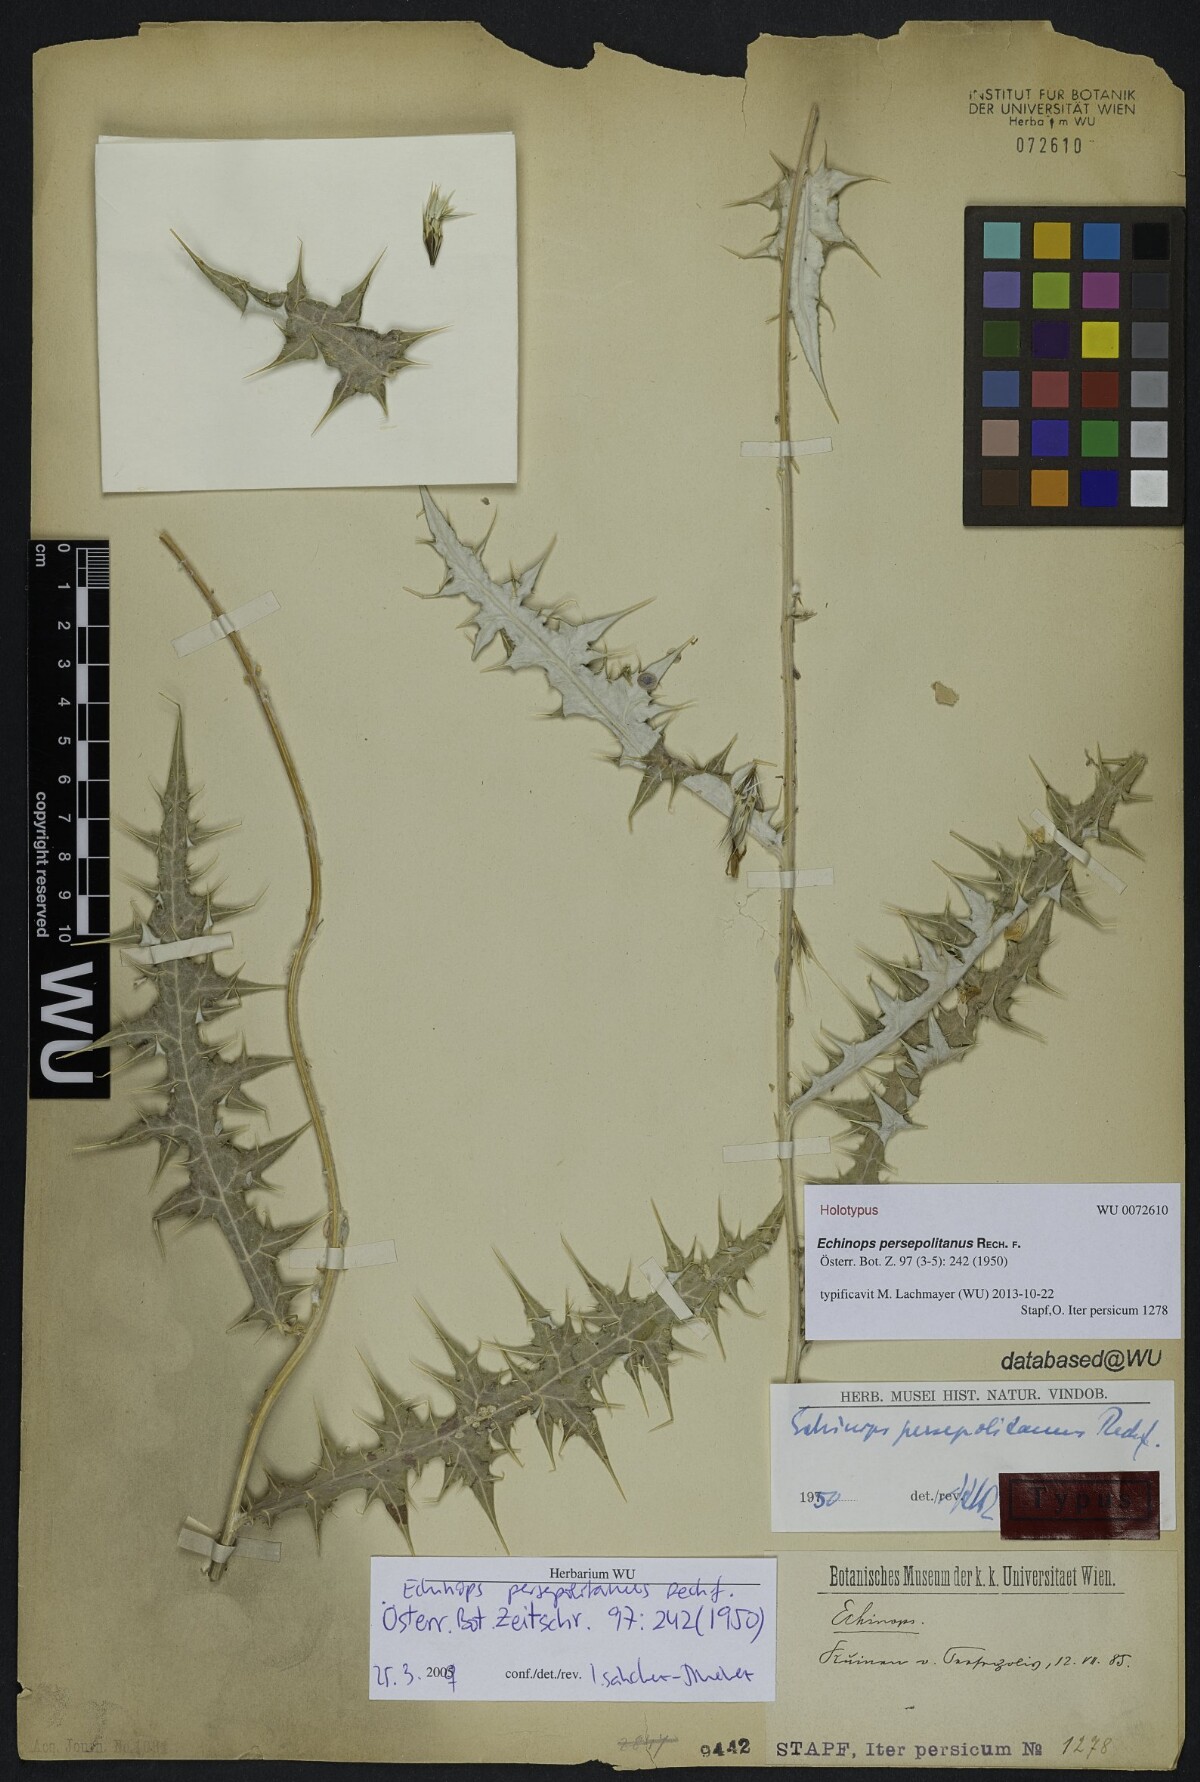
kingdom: Plantae
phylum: Tracheophyta
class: Magnoliopsida
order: Asterales
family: Asteraceae
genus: Echinops
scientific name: Echinops hebelepis
